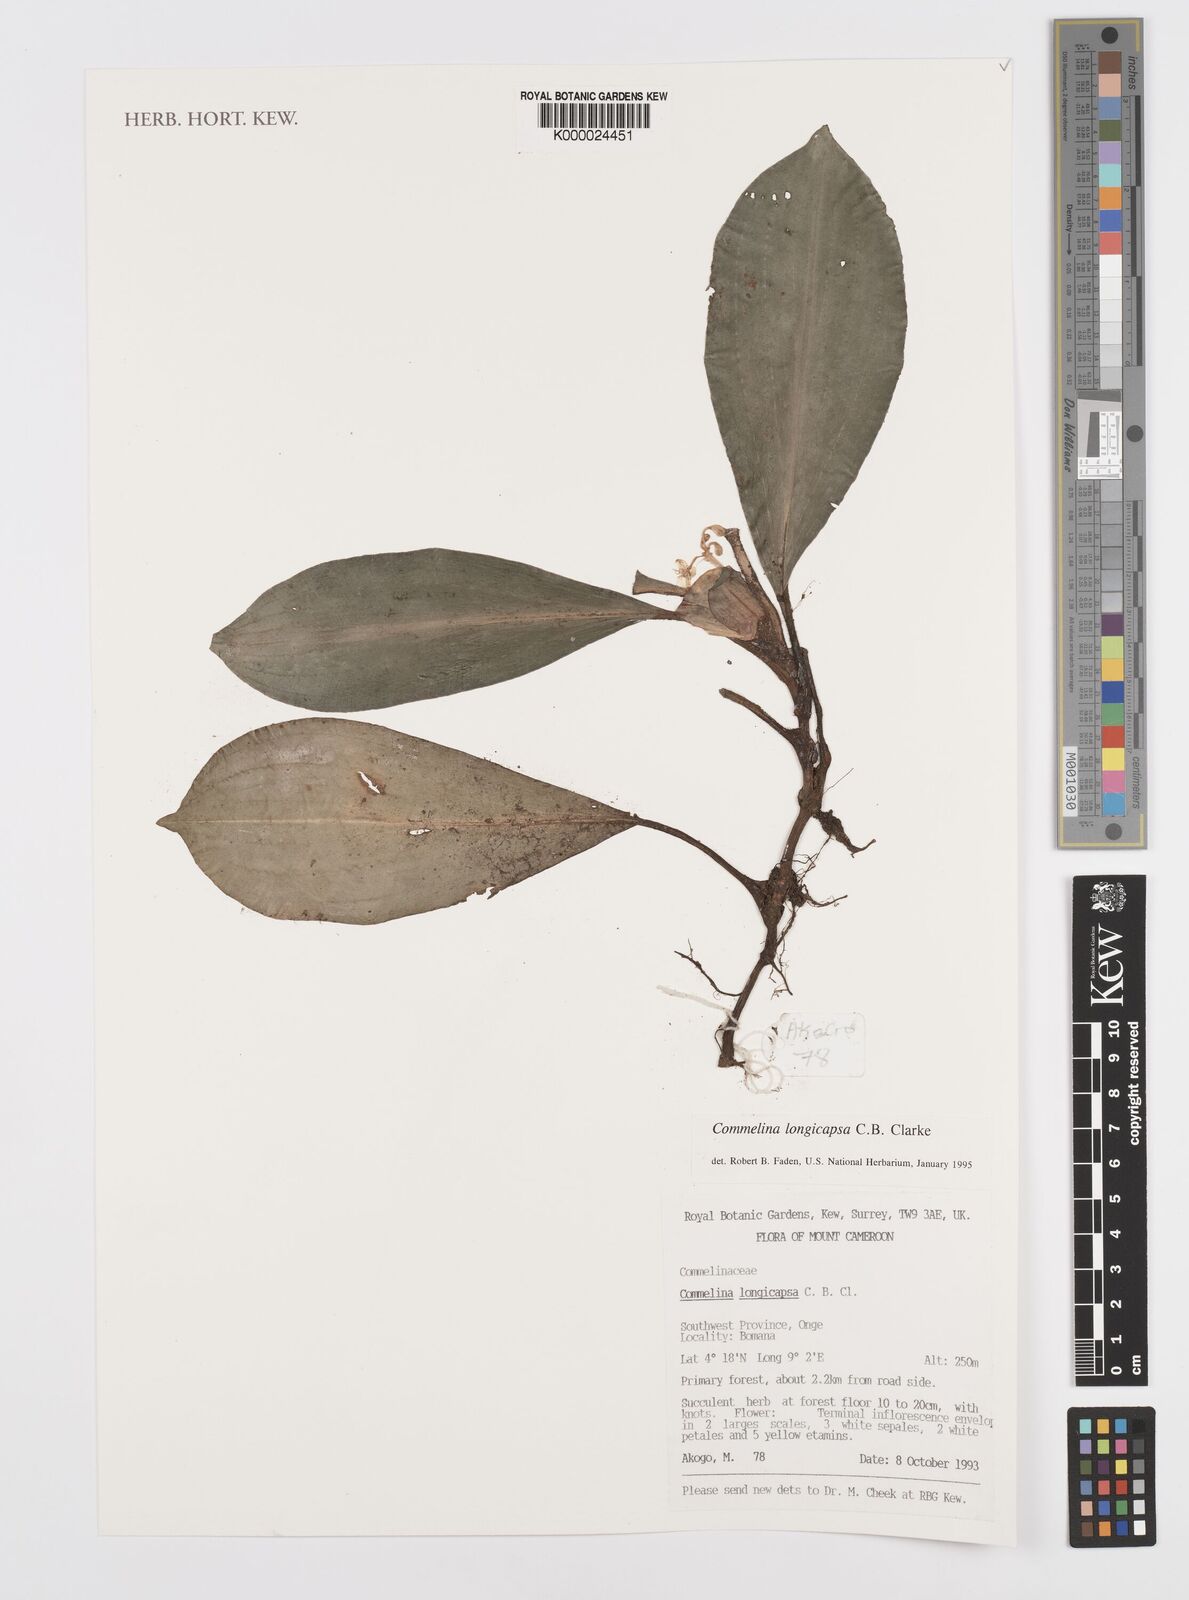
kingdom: Plantae
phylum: Tracheophyta
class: Liliopsida
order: Commelinales
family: Commelinaceae
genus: Commelina
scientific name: Commelina longicapsa
